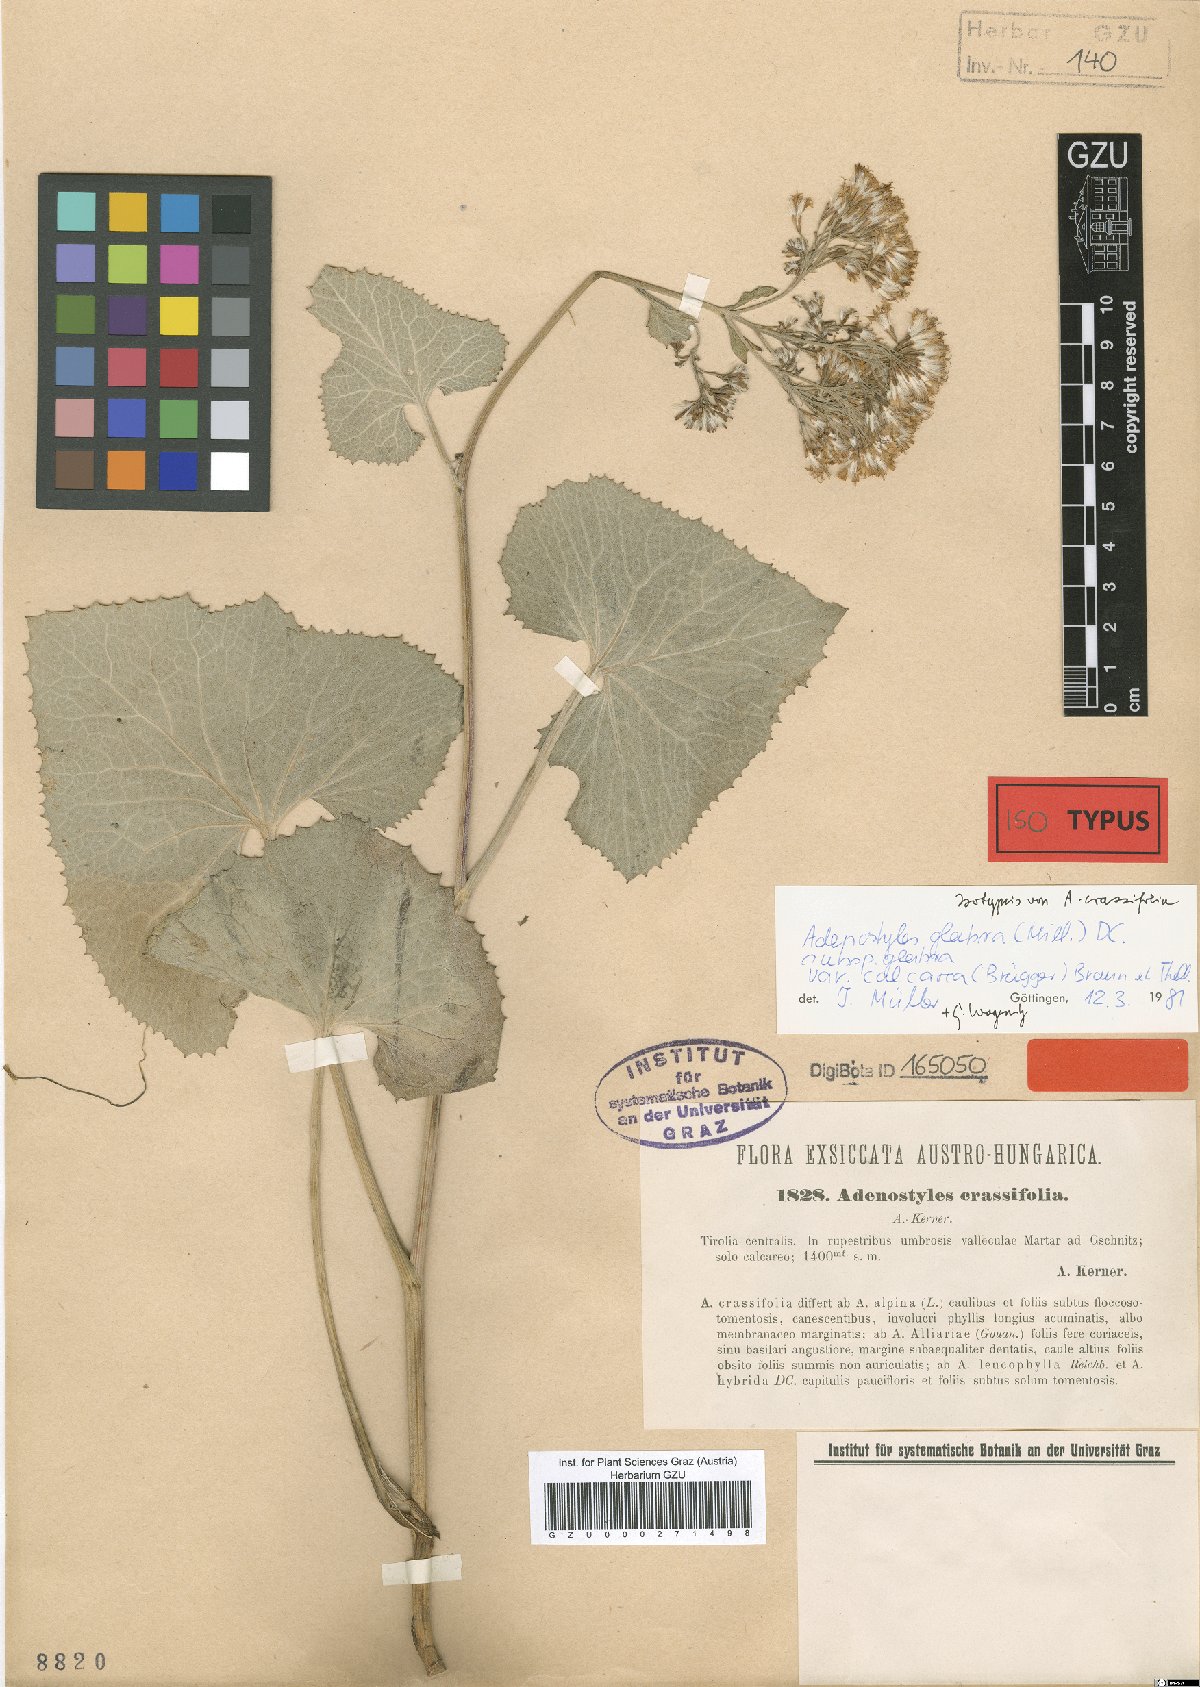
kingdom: Plantae
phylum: Tracheophyta
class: Magnoliopsida
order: Asterales
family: Asteraceae
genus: Adenostyles
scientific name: Adenostyles alpina
